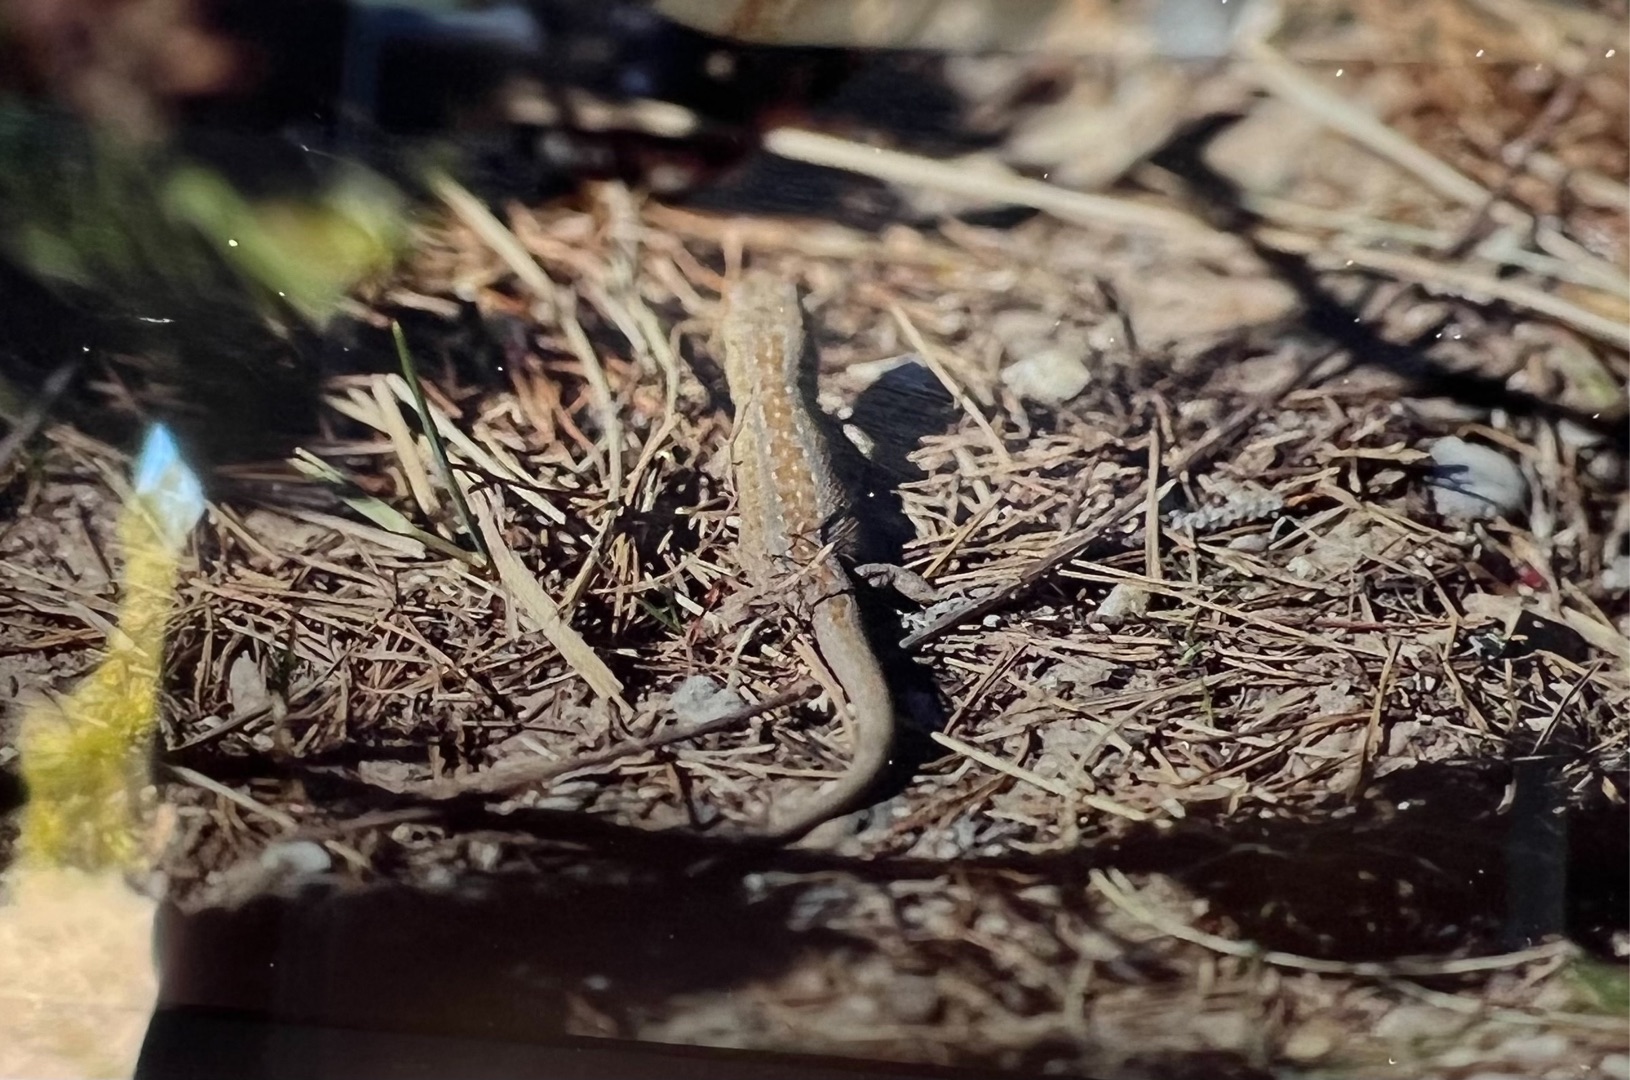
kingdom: Animalia
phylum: Chordata
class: Squamata
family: Lacertidae
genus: Lacerta
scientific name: Lacerta agilis
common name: Markfirben
